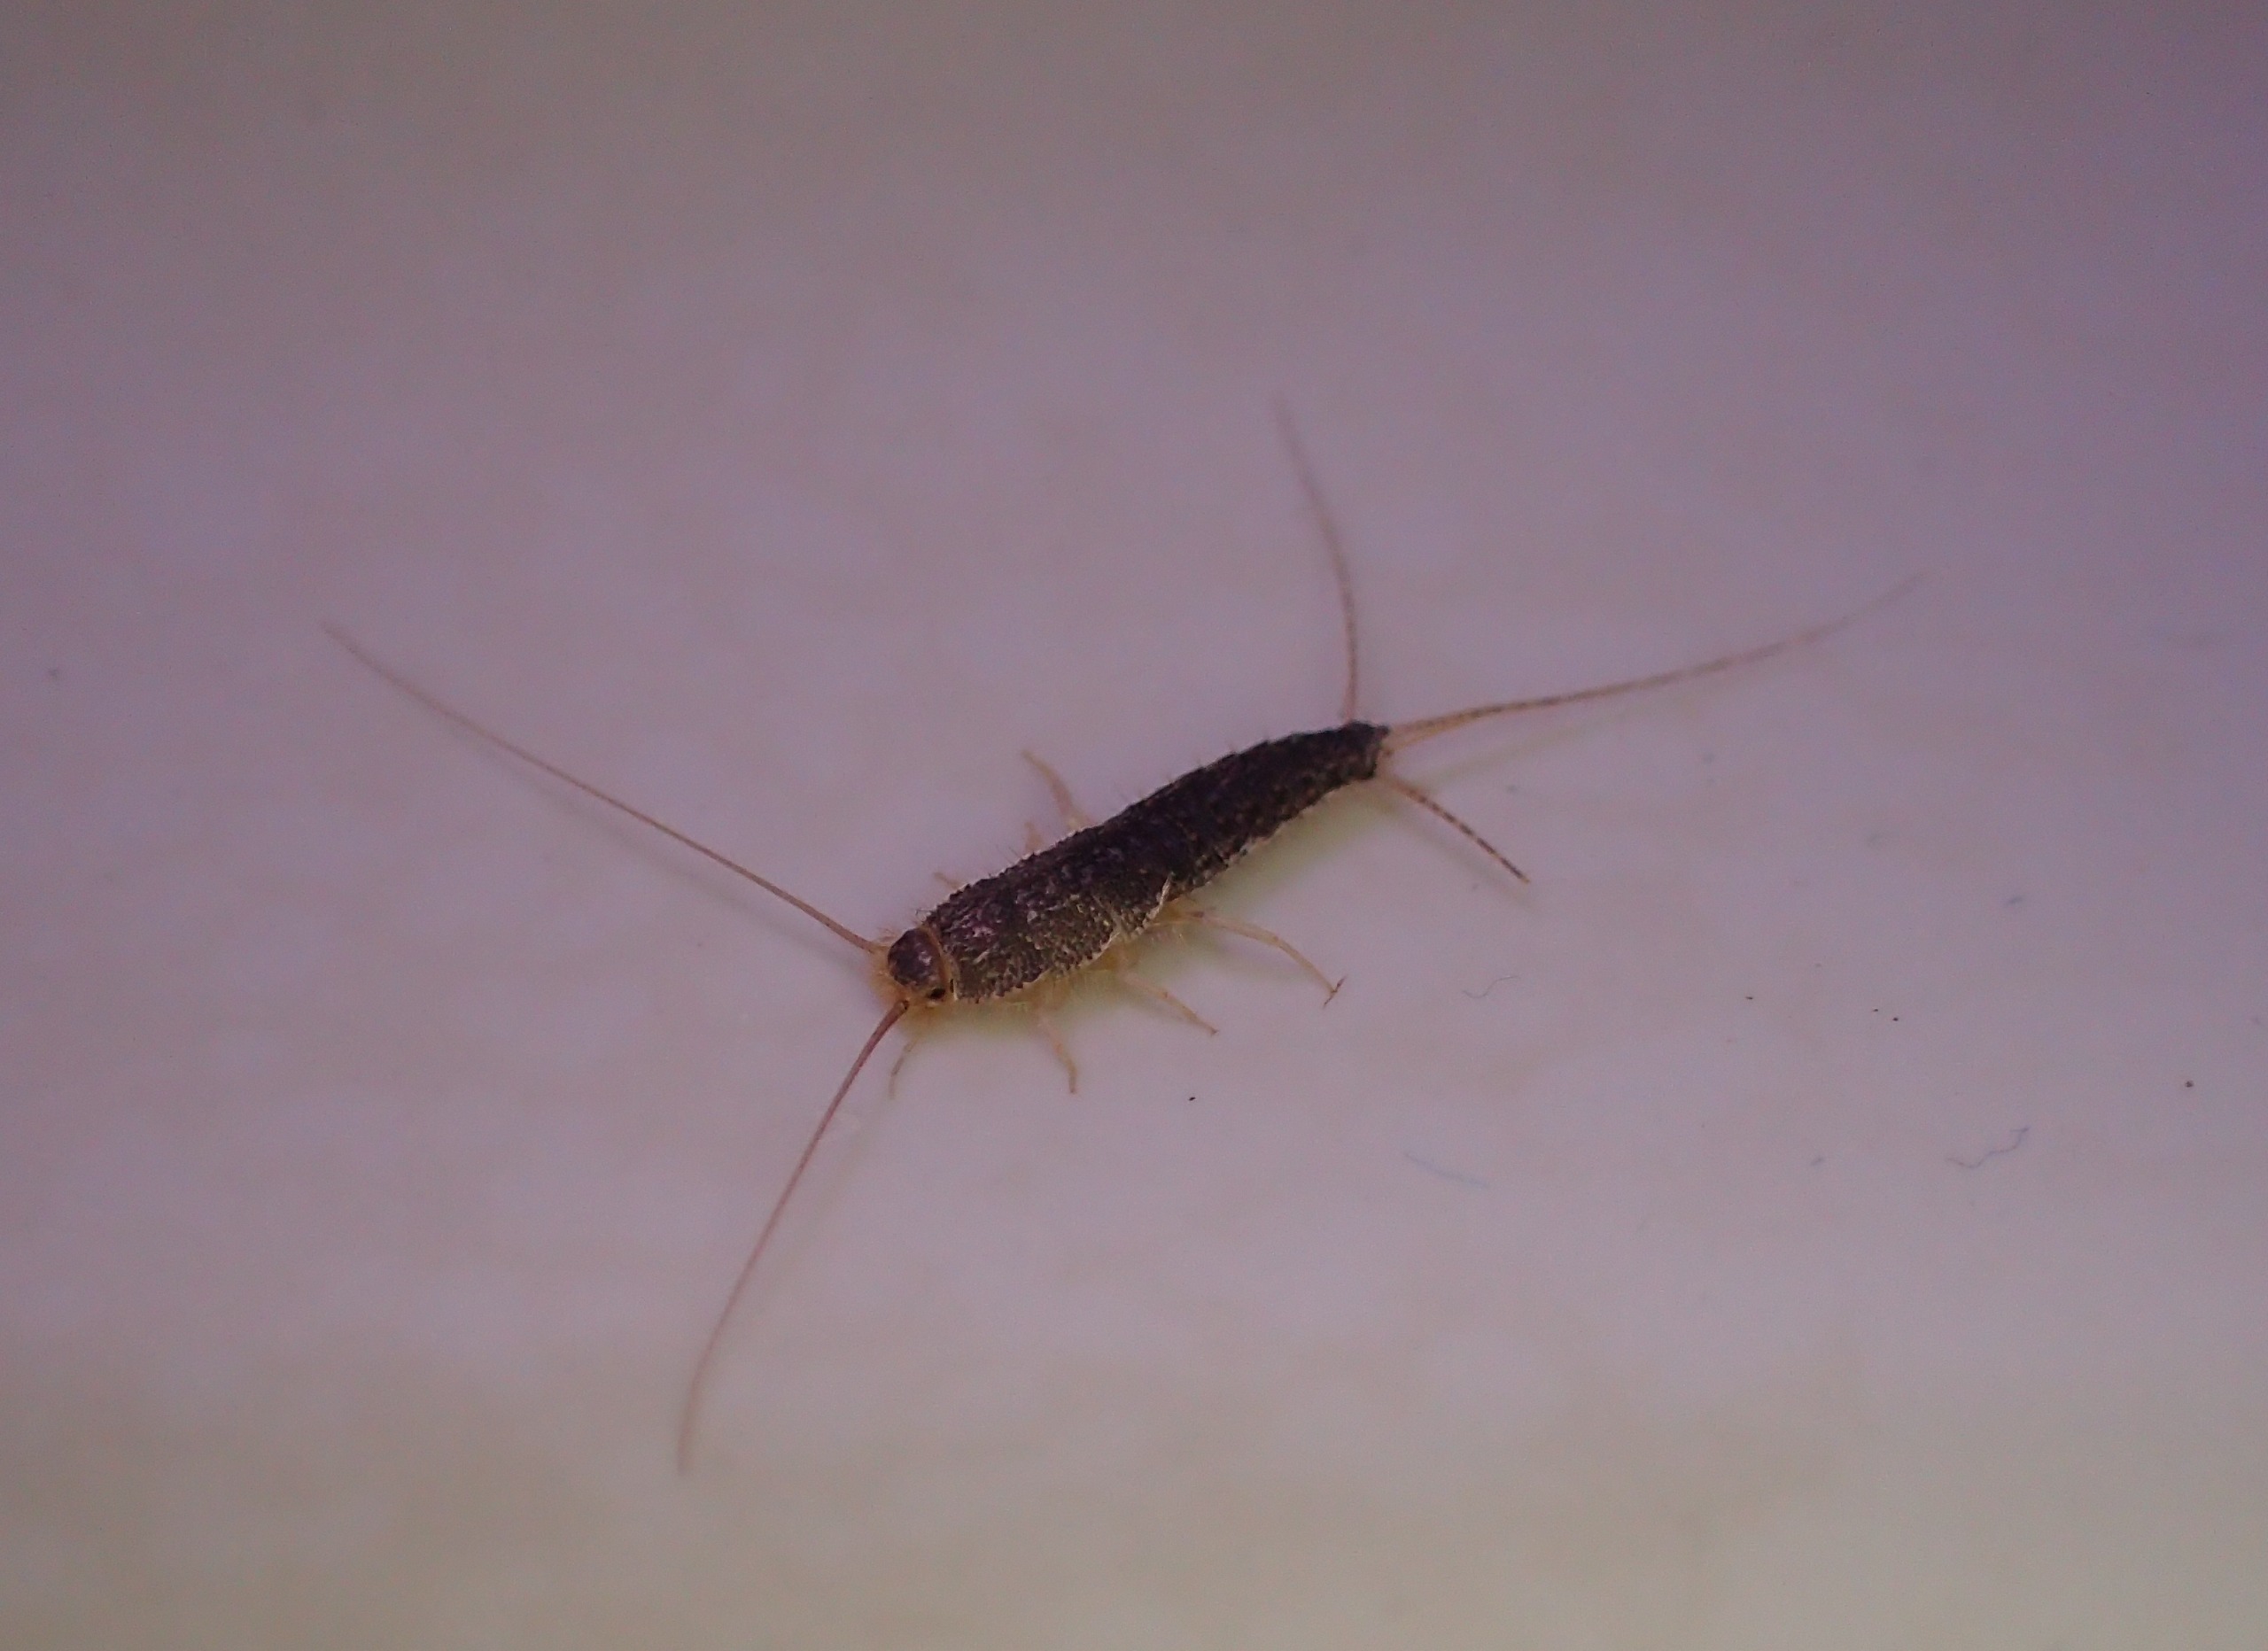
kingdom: Animalia
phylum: Arthropoda
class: Insecta
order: Zygentoma
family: Lepismatidae
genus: Ctenolepisma
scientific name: Ctenolepisma longicaudatum
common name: Skægget sølvkræ
